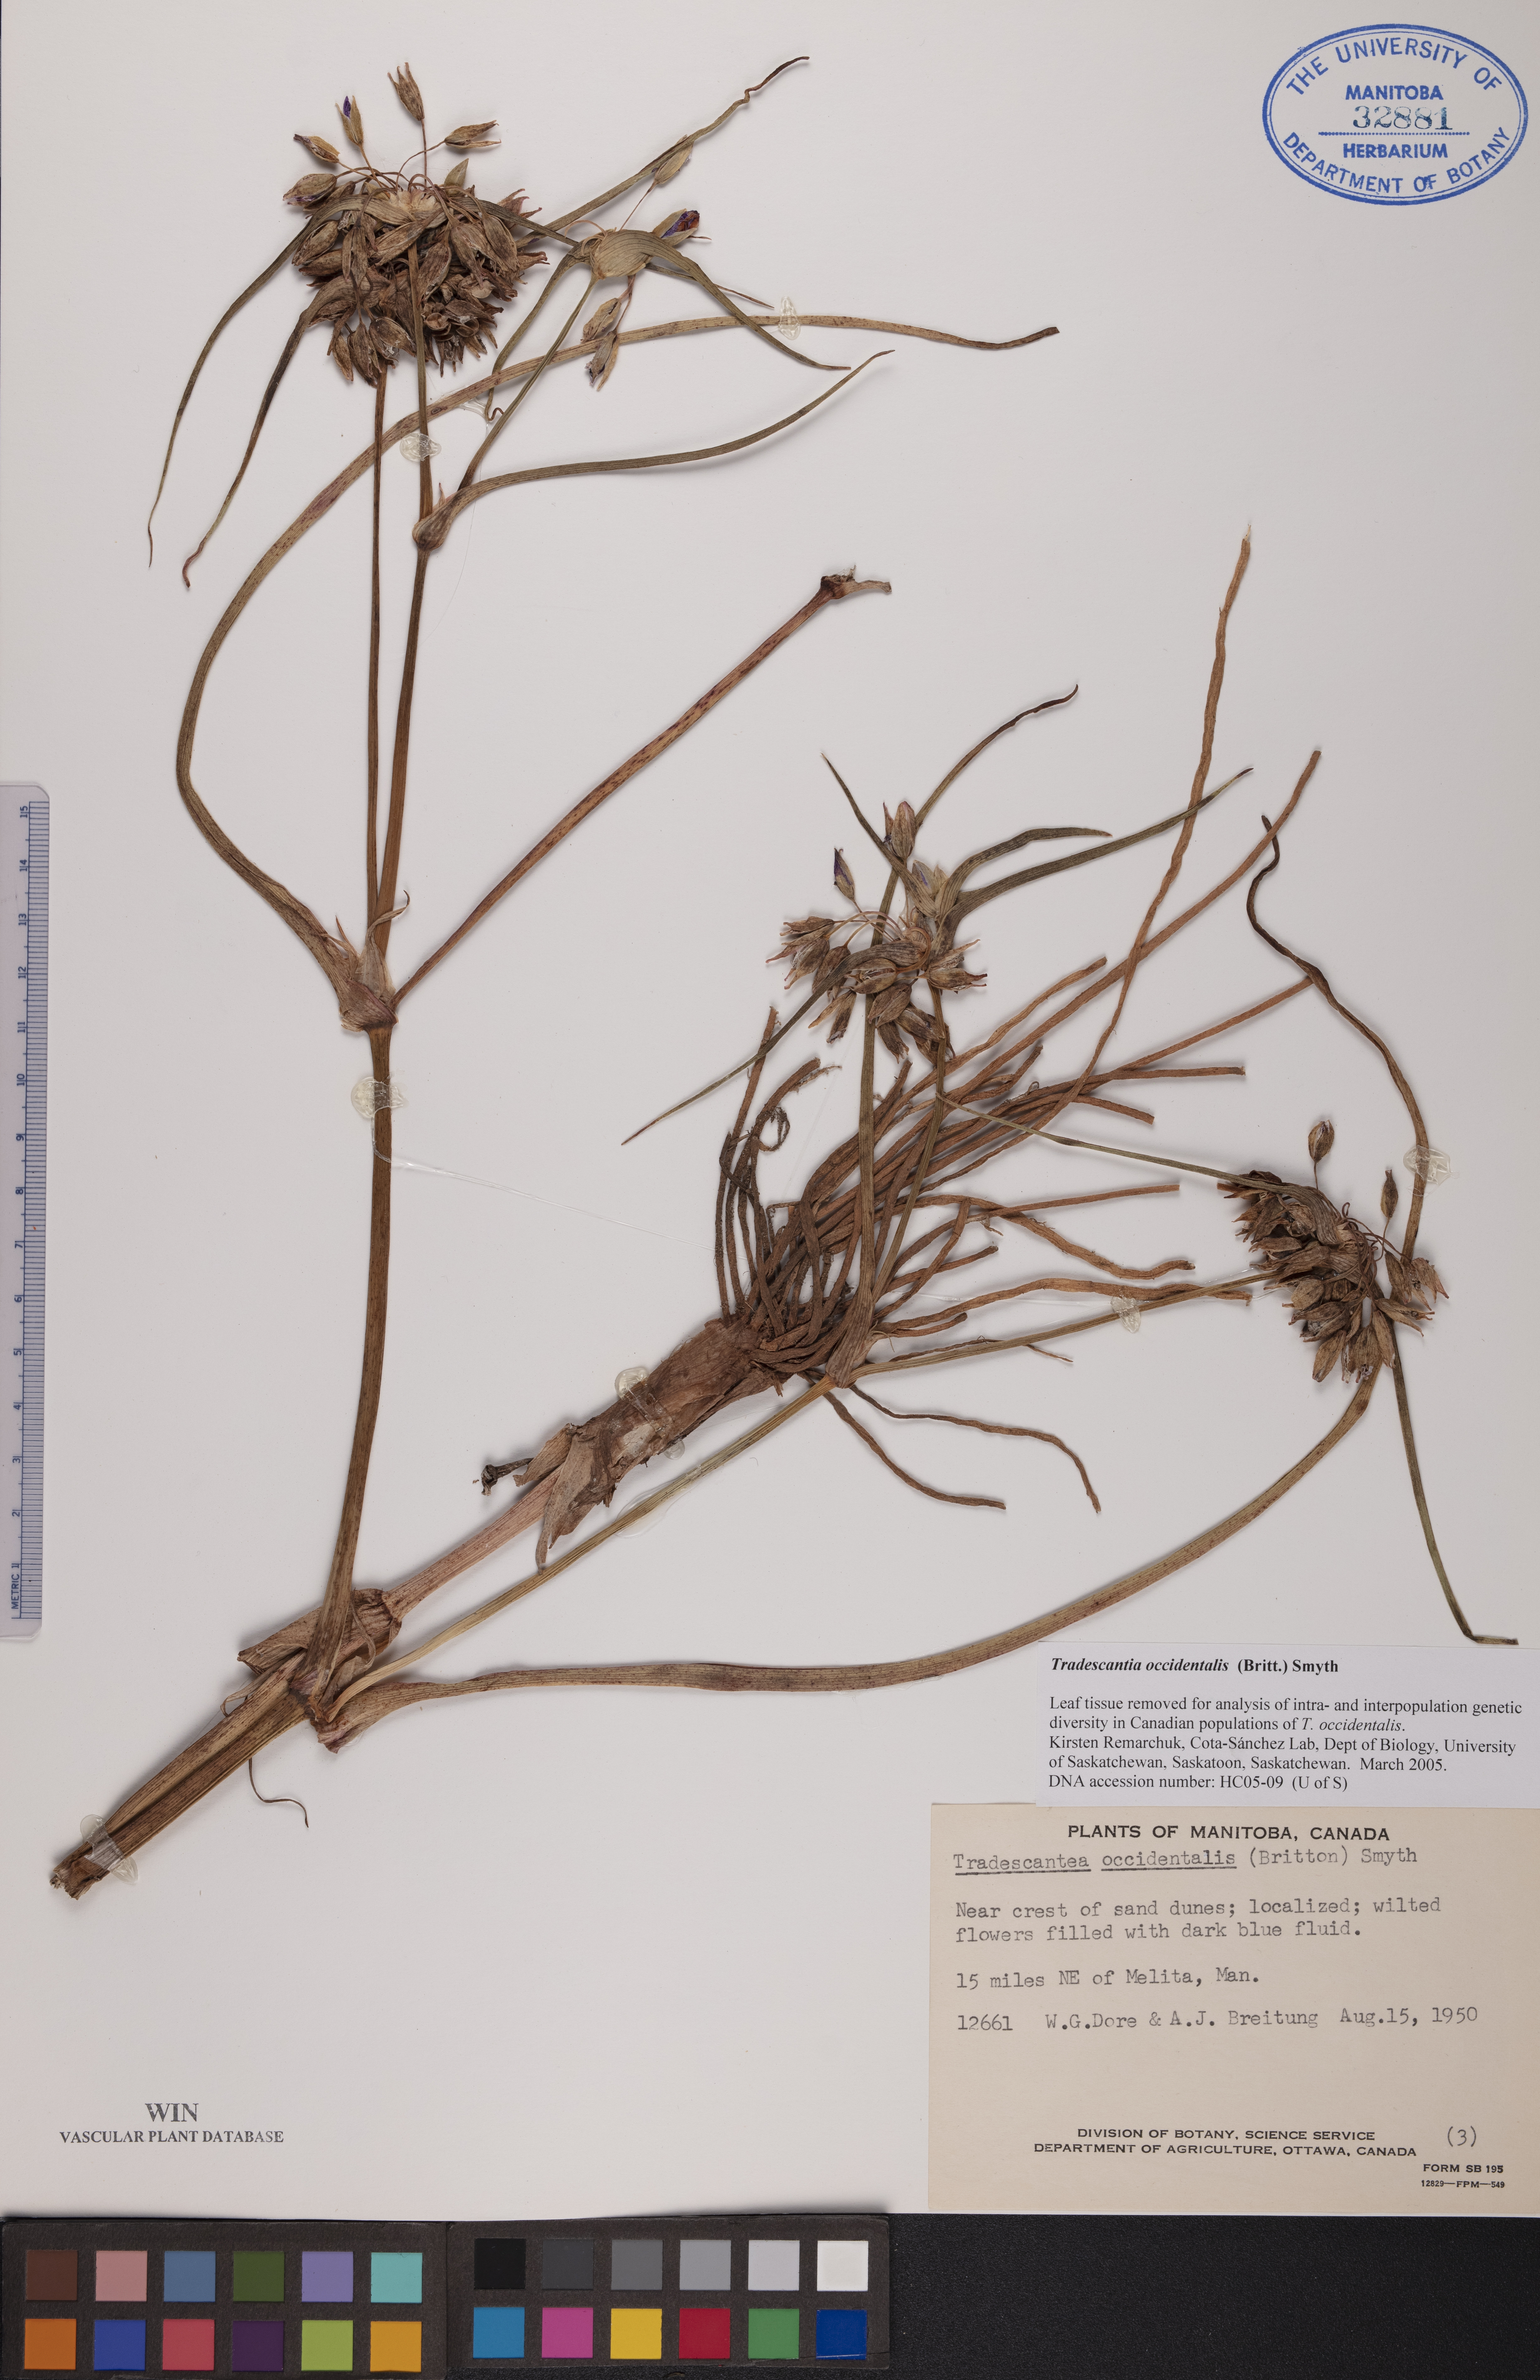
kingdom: Plantae
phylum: Tracheophyta
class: Liliopsida
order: Commelinales
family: Commelinaceae
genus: Tradescantia
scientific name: Tradescantia occidentalis
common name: Prairie spiderwort
